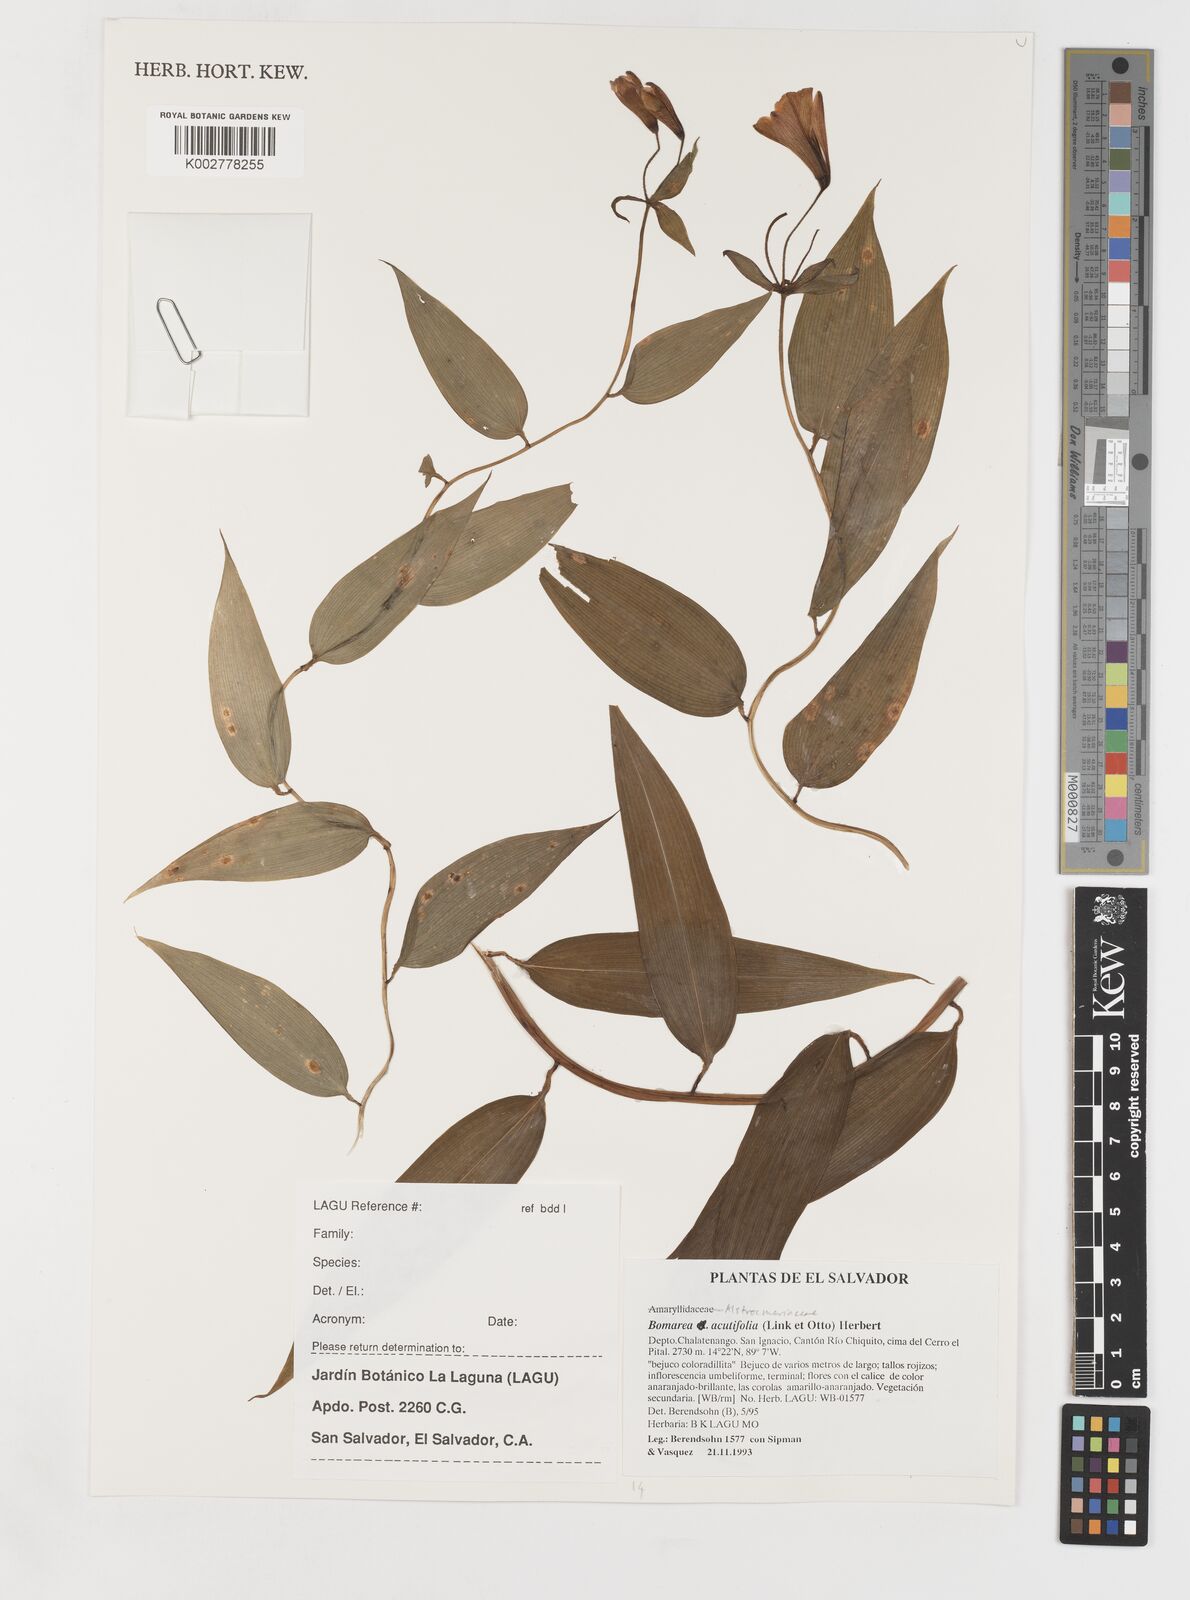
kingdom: Plantae
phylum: Tracheophyta
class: Liliopsida
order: Liliales
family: Alstroemeriaceae
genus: Bomarea
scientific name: Bomarea acutifolia
